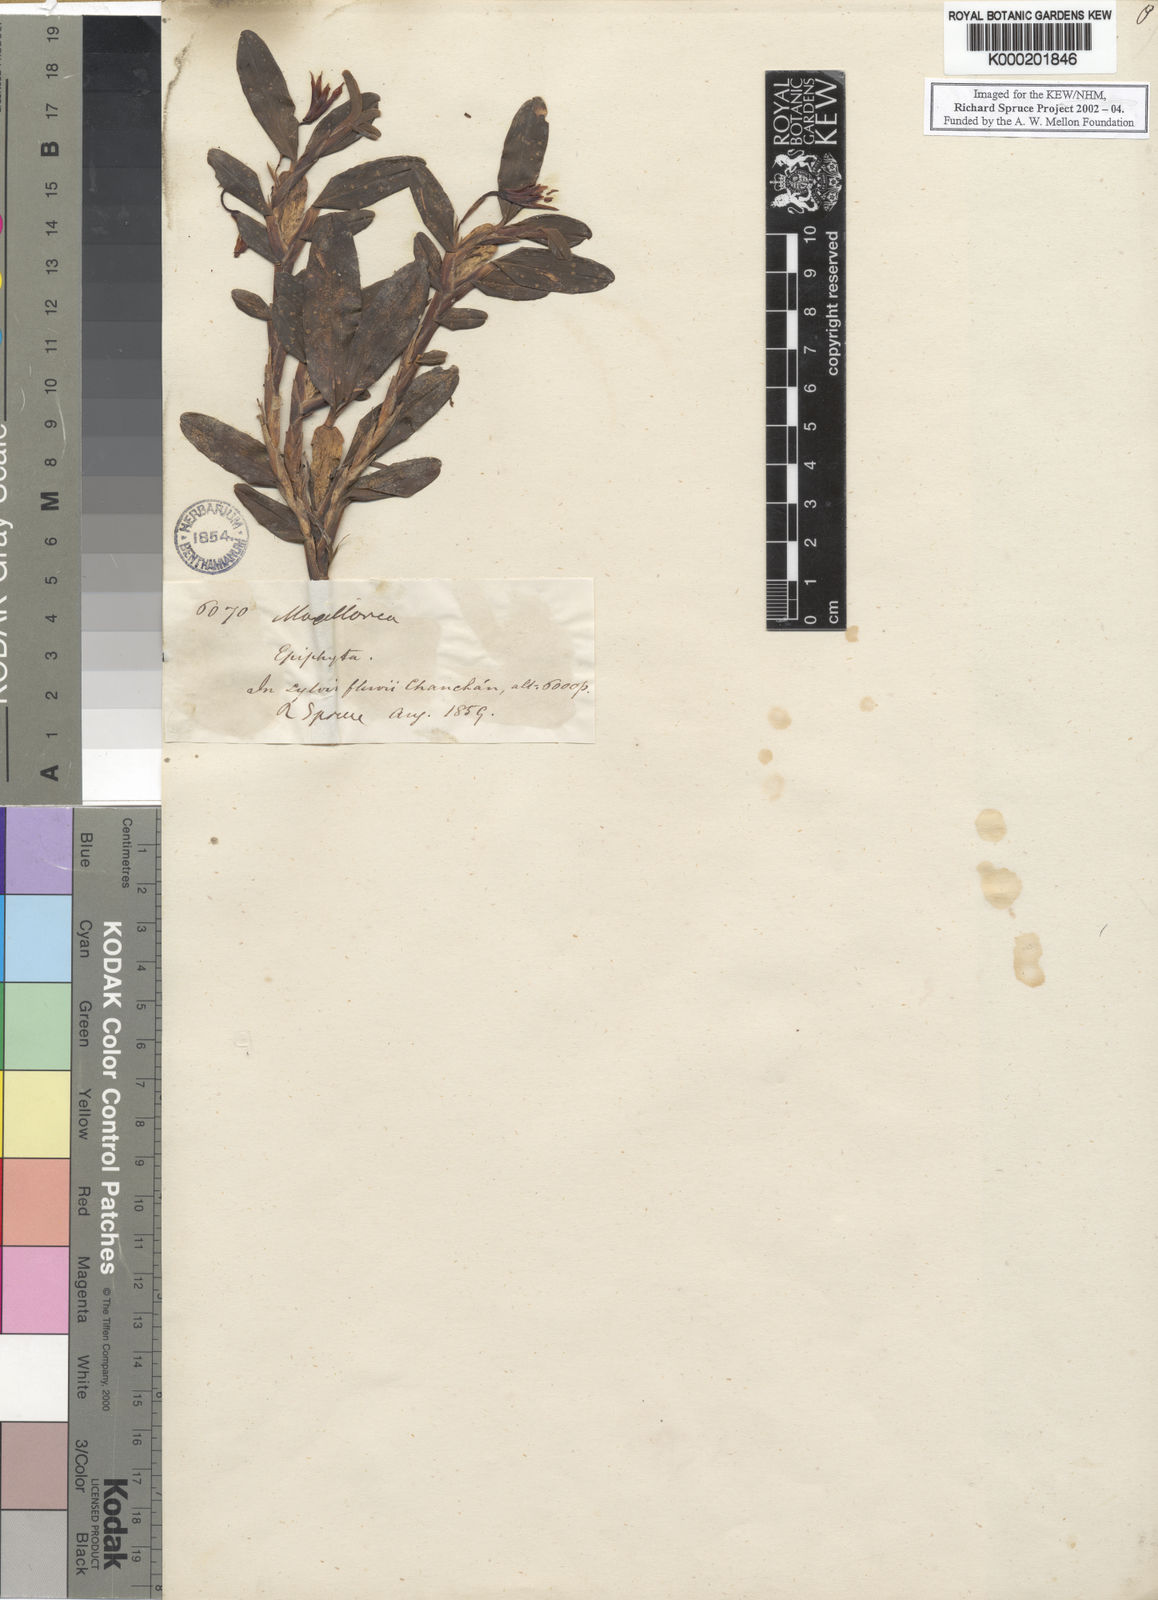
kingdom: Plantae
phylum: Tracheophyta
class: Liliopsida
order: Asparagales
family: Orchidaceae
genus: Maxillaria
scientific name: Maxillaria estradae
